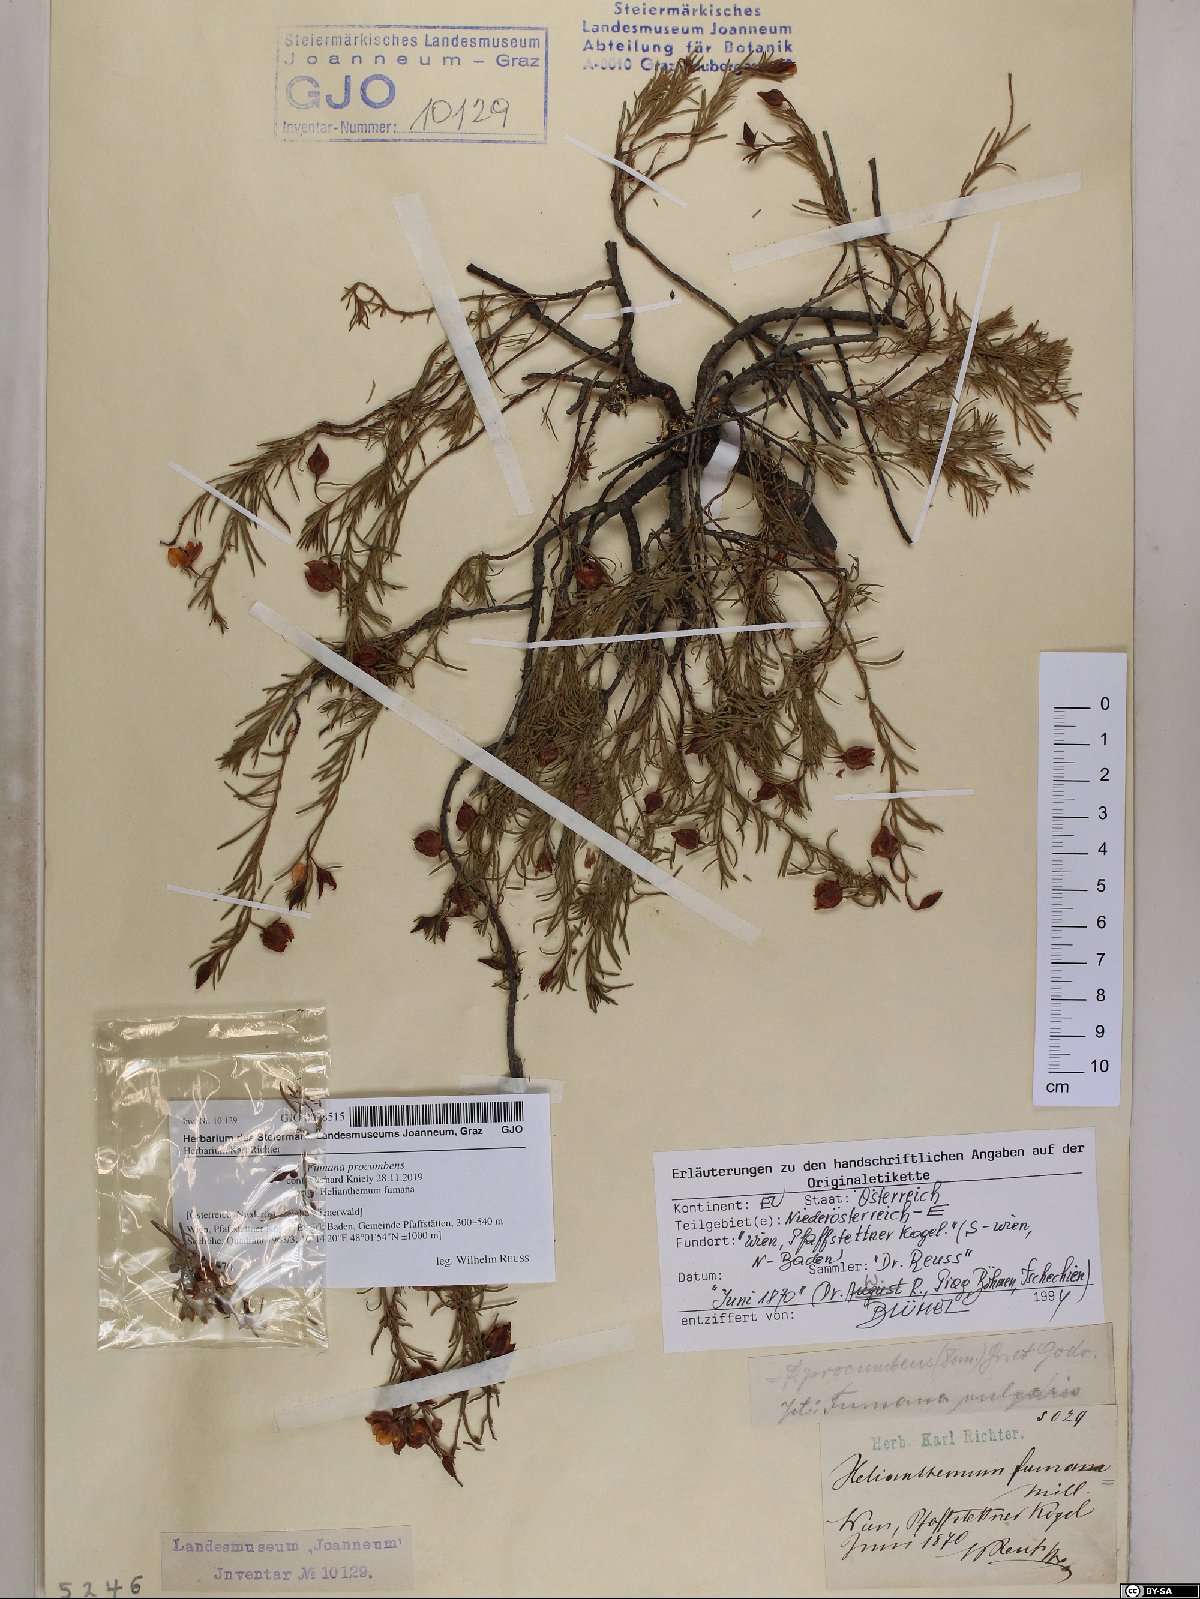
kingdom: Plantae
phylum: Tracheophyta
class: Magnoliopsida
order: Malvales
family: Cistaceae
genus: Fumana
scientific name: Fumana procumbens
